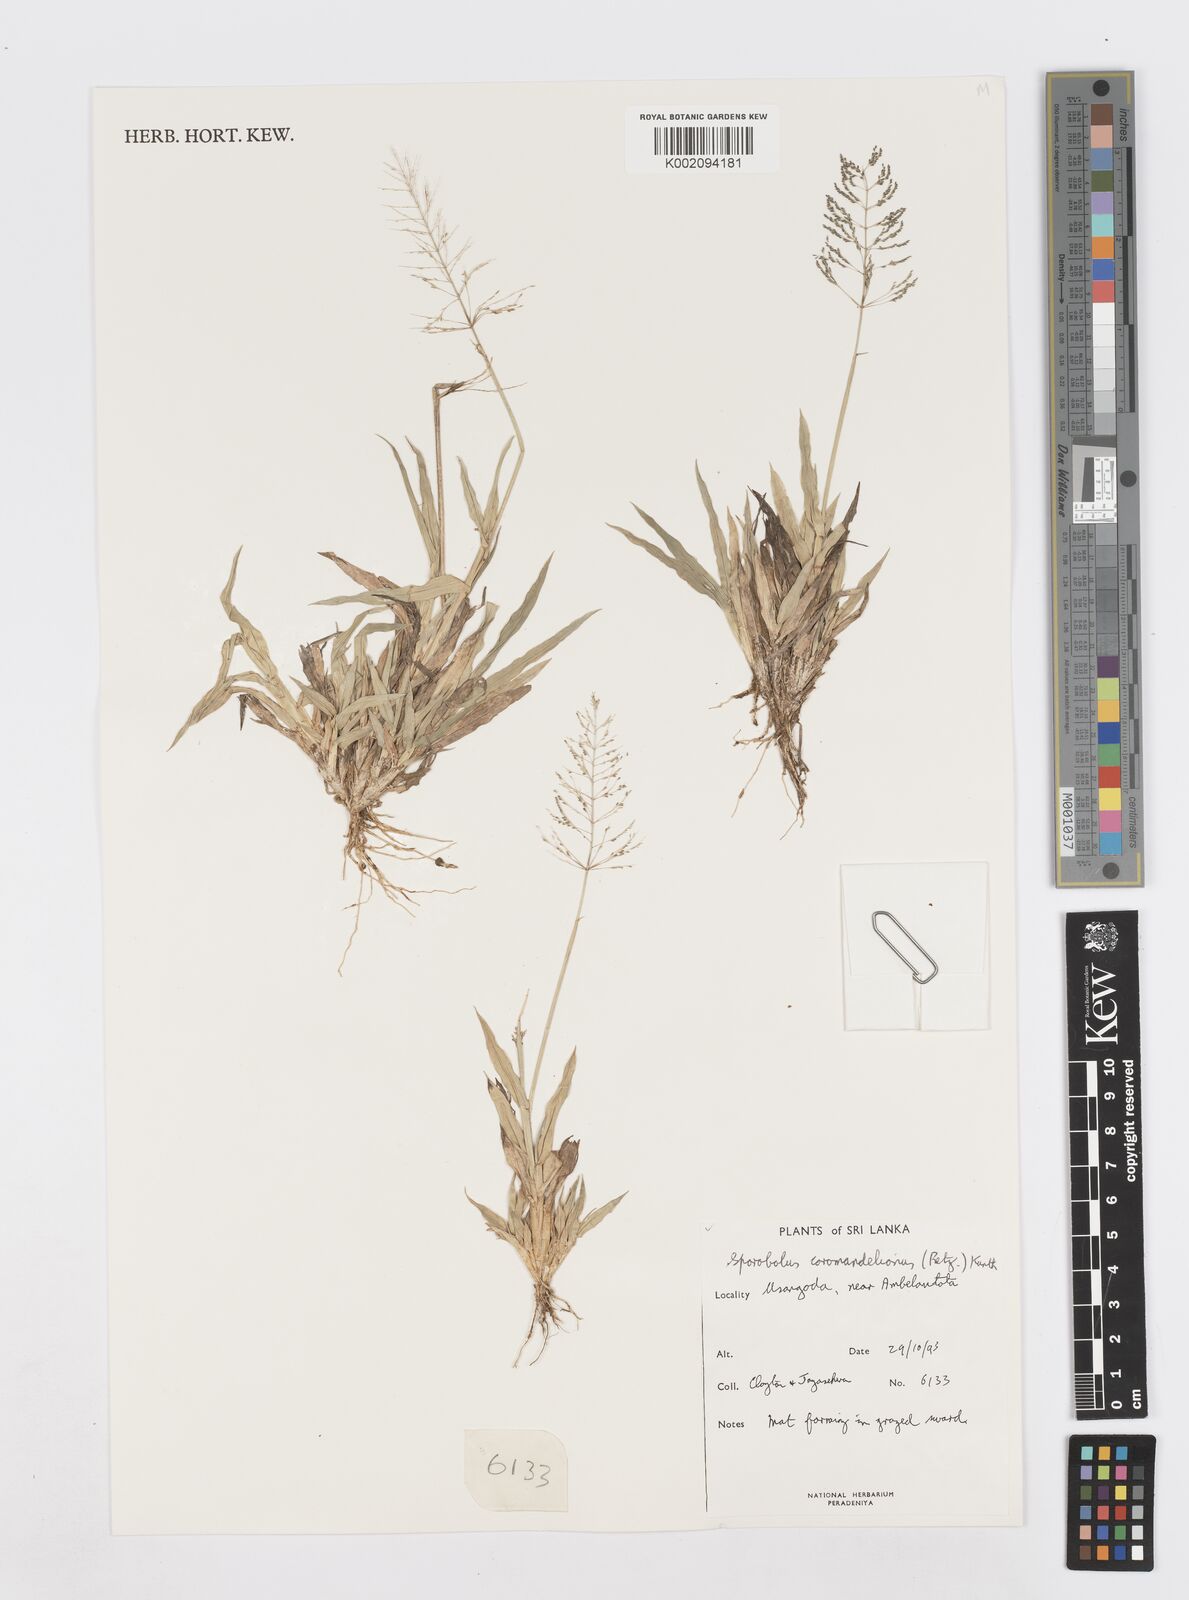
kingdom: Plantae
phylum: Tracheophyta
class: Liliopsida
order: Poales
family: Poaceae
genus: Sporobolus
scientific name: Sporobolus coromandelianus
